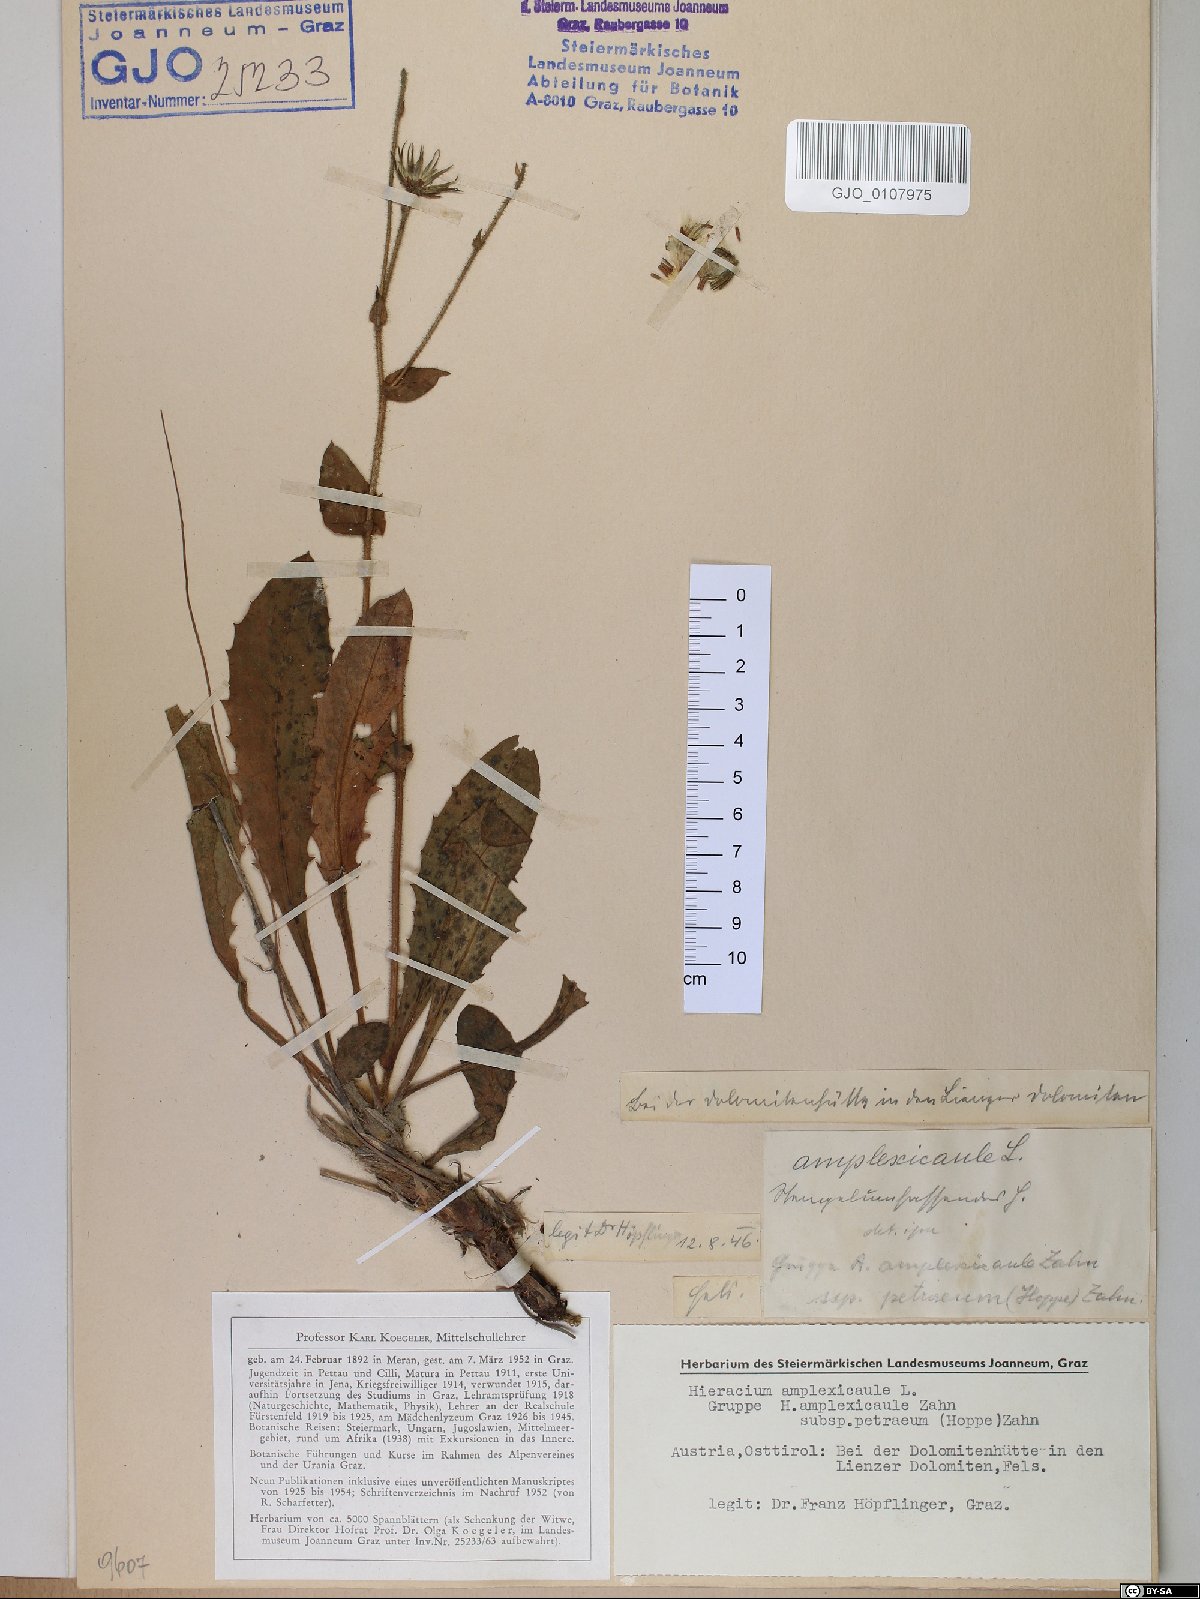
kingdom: Plantae
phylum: Tracheophyta
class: Magnoliopsida
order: Asterales
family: Asteraceae
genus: Hieracium
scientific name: Hieracium amplexicaule
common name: Sticky hawkweed
